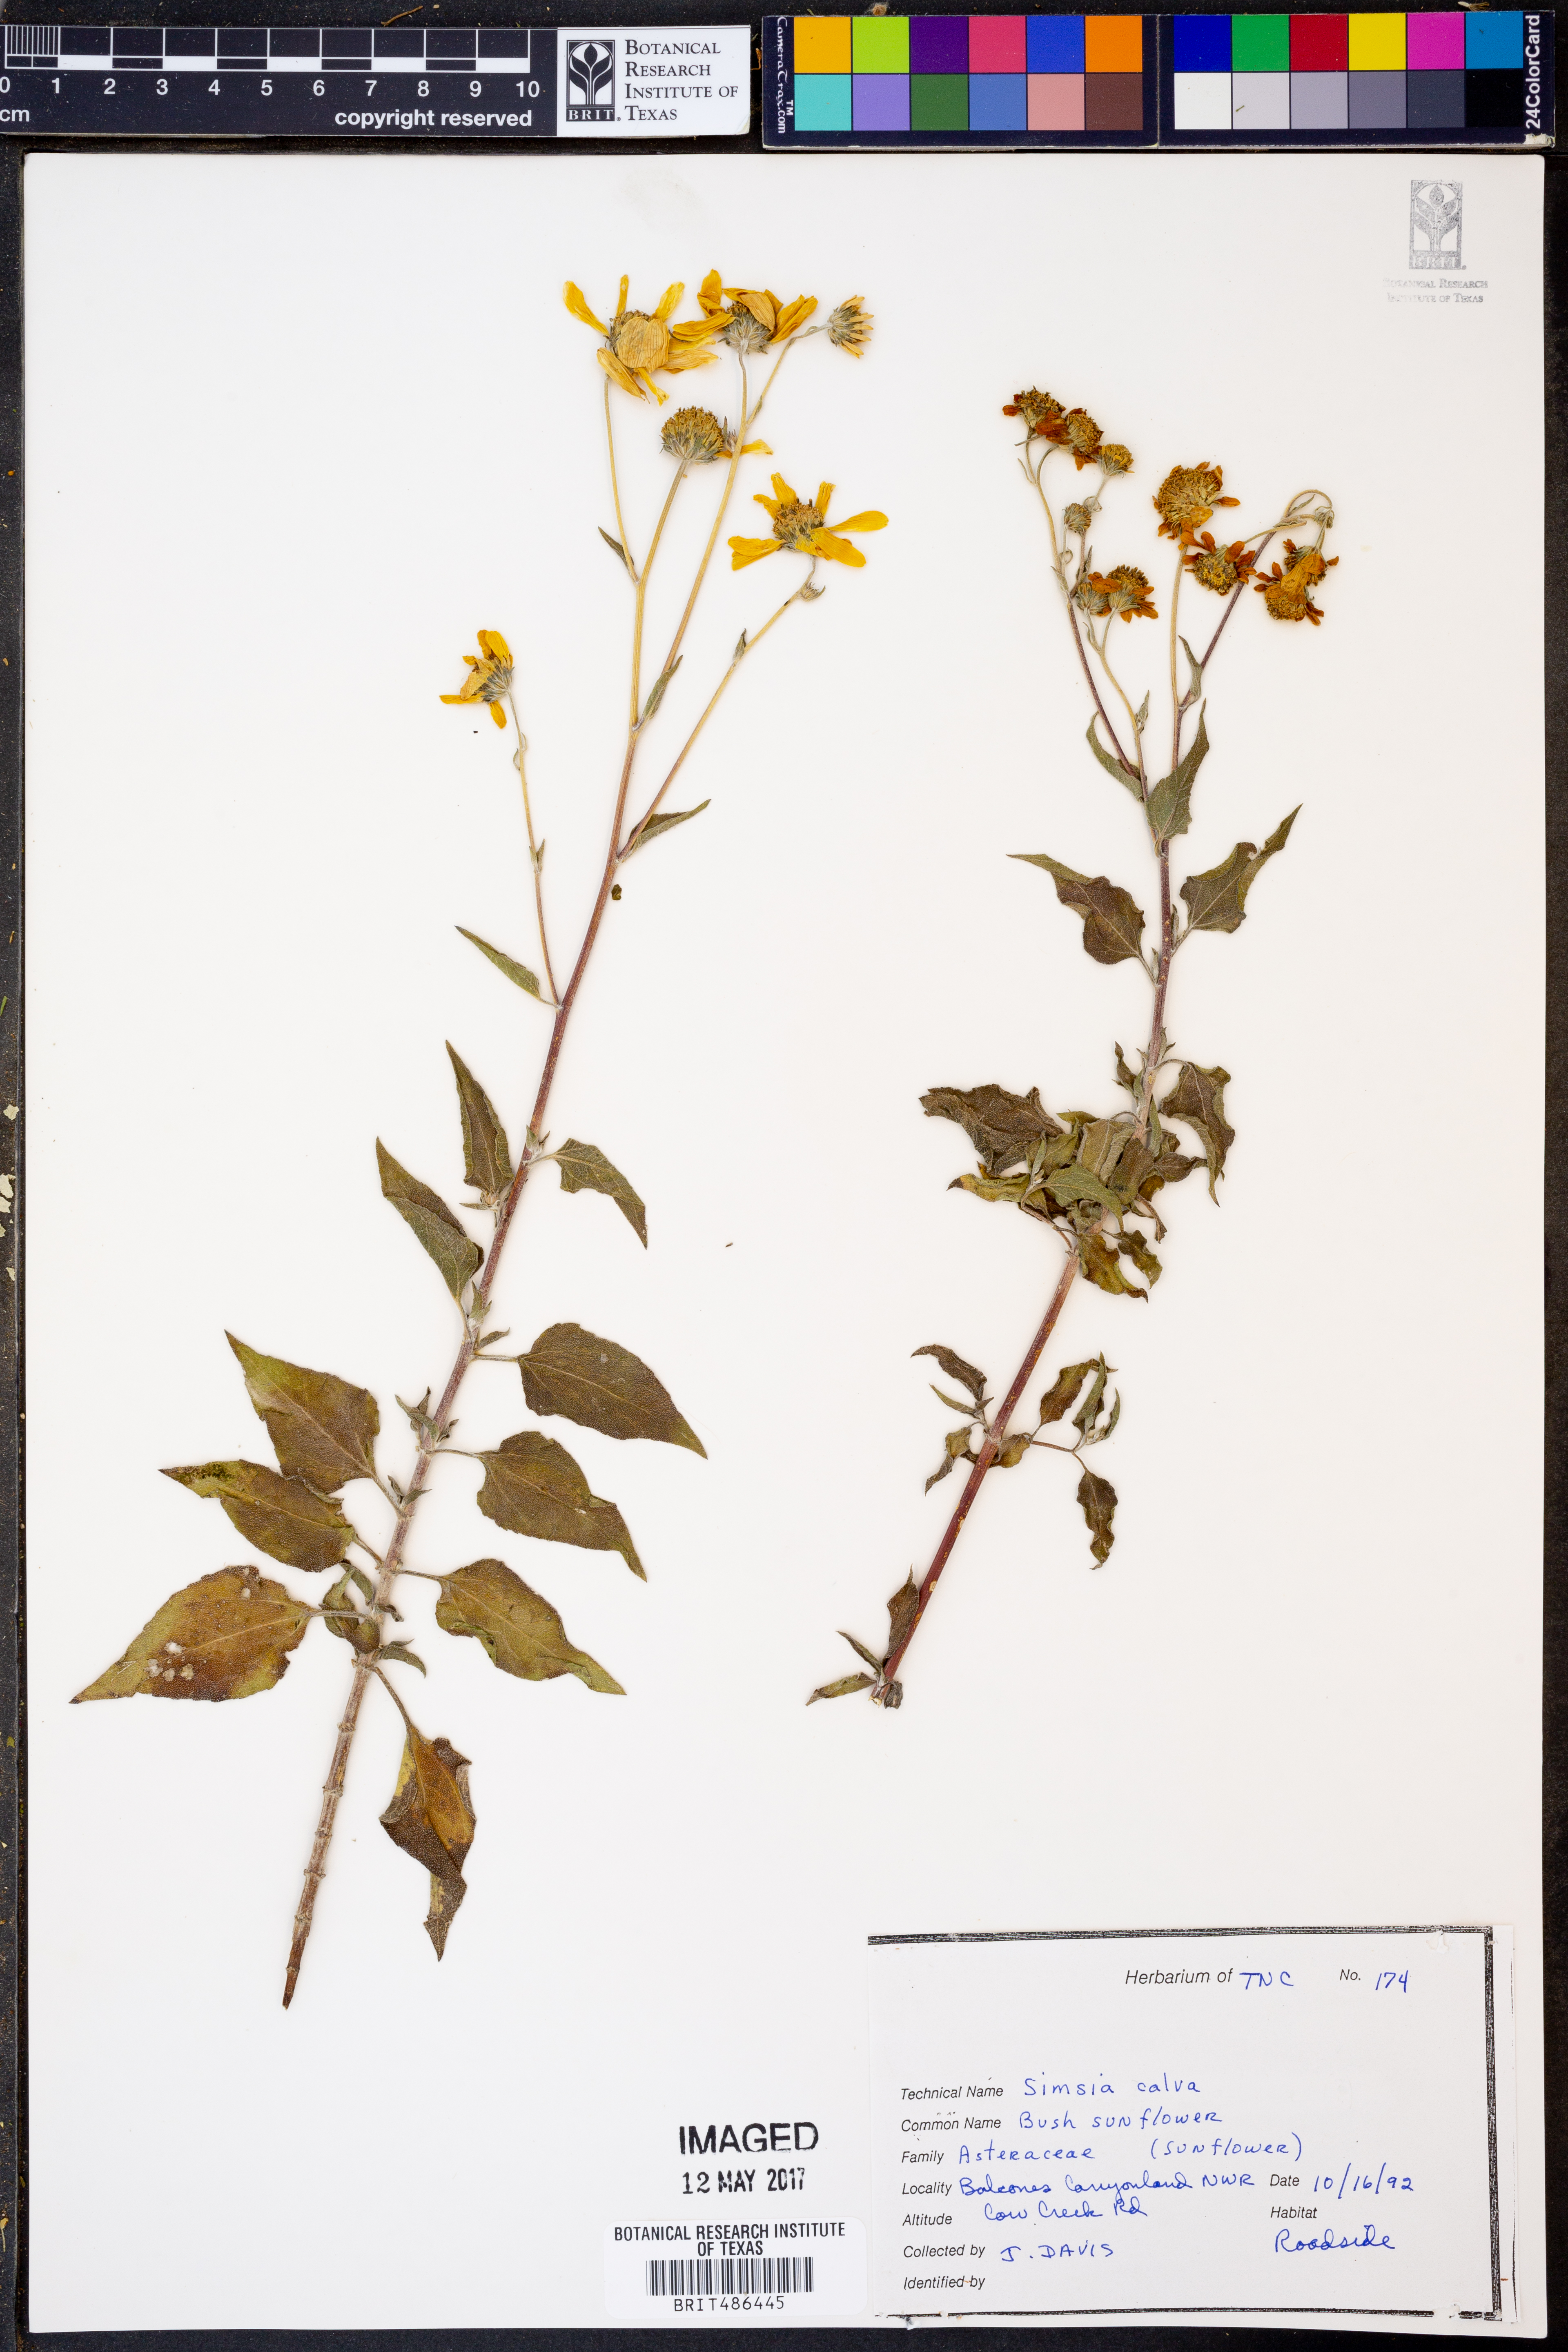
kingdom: Plantae
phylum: Tracheophyta
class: Magnoliopsida
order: Asterales
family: Asteraceae
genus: Simsia
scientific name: Simsia calva
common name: Awnless bush-sunflower
